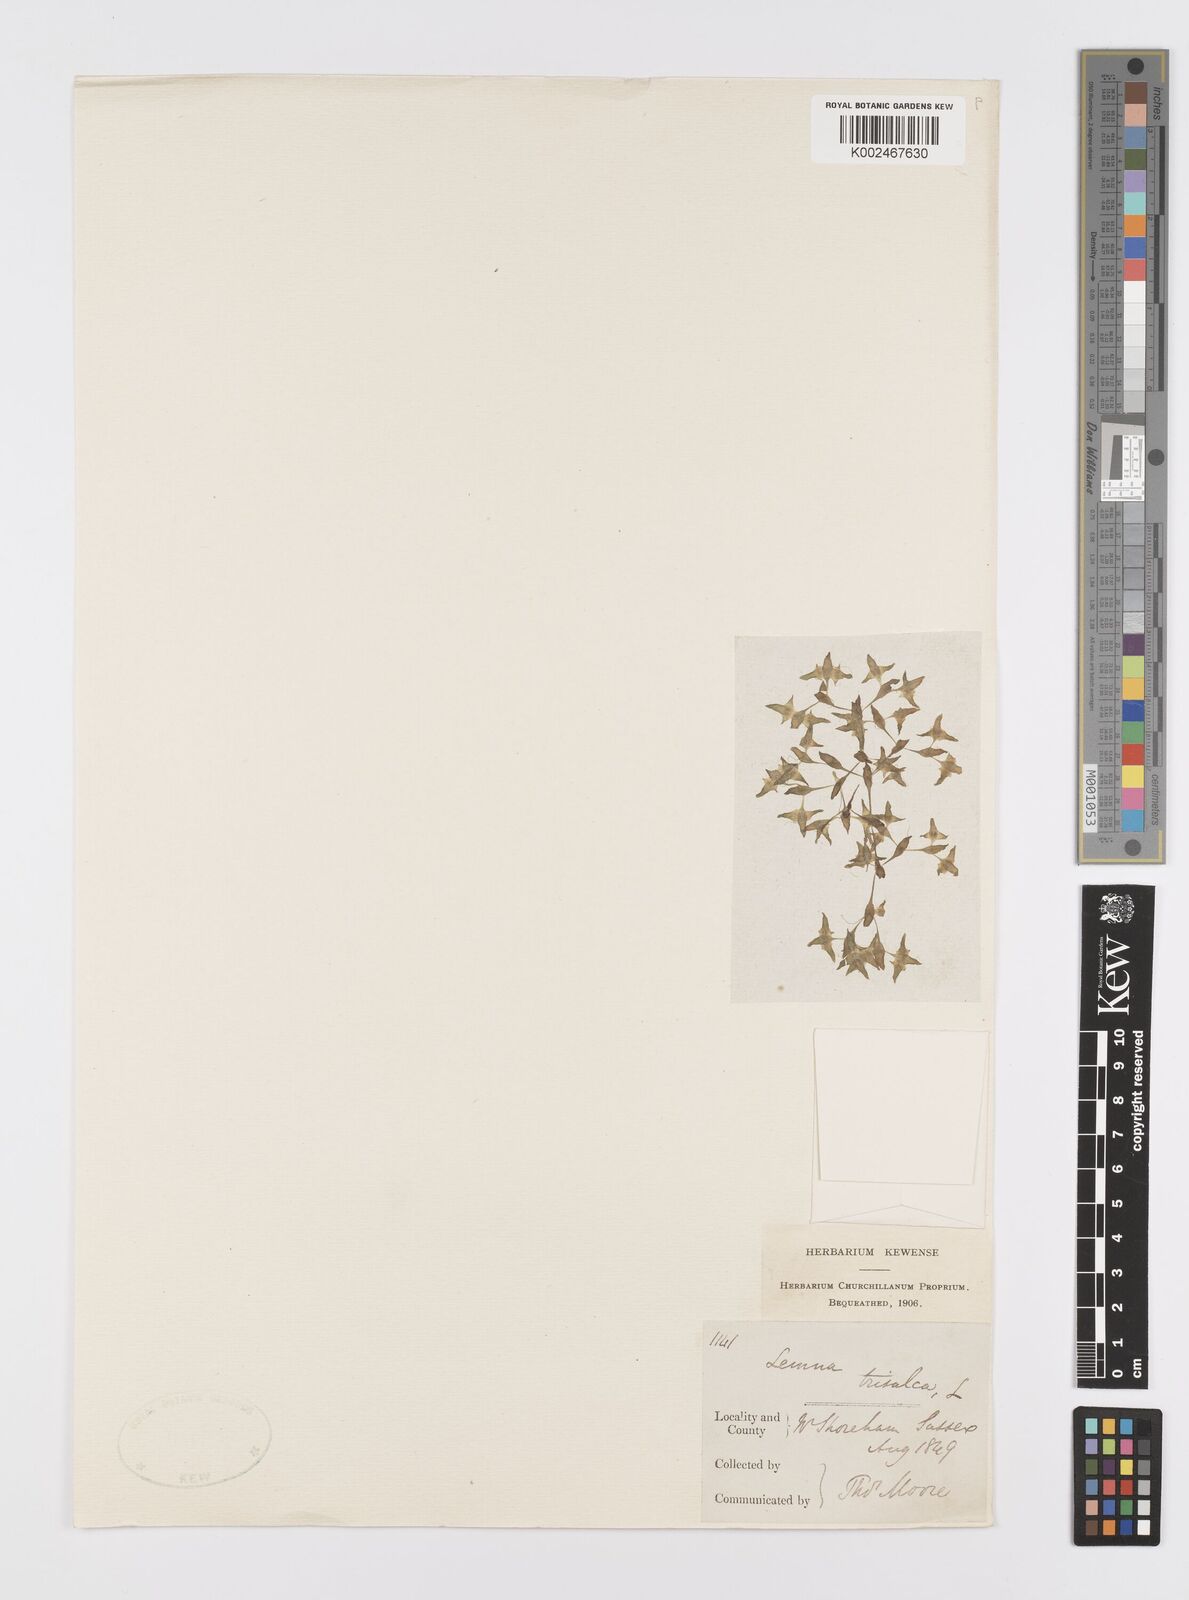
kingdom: Plantae
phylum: Tracheophyta
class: Liliopsida
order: Alismatales
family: Araceae
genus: Lemna
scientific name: Lemna trisulca
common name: Ivy-leaved duckweed
